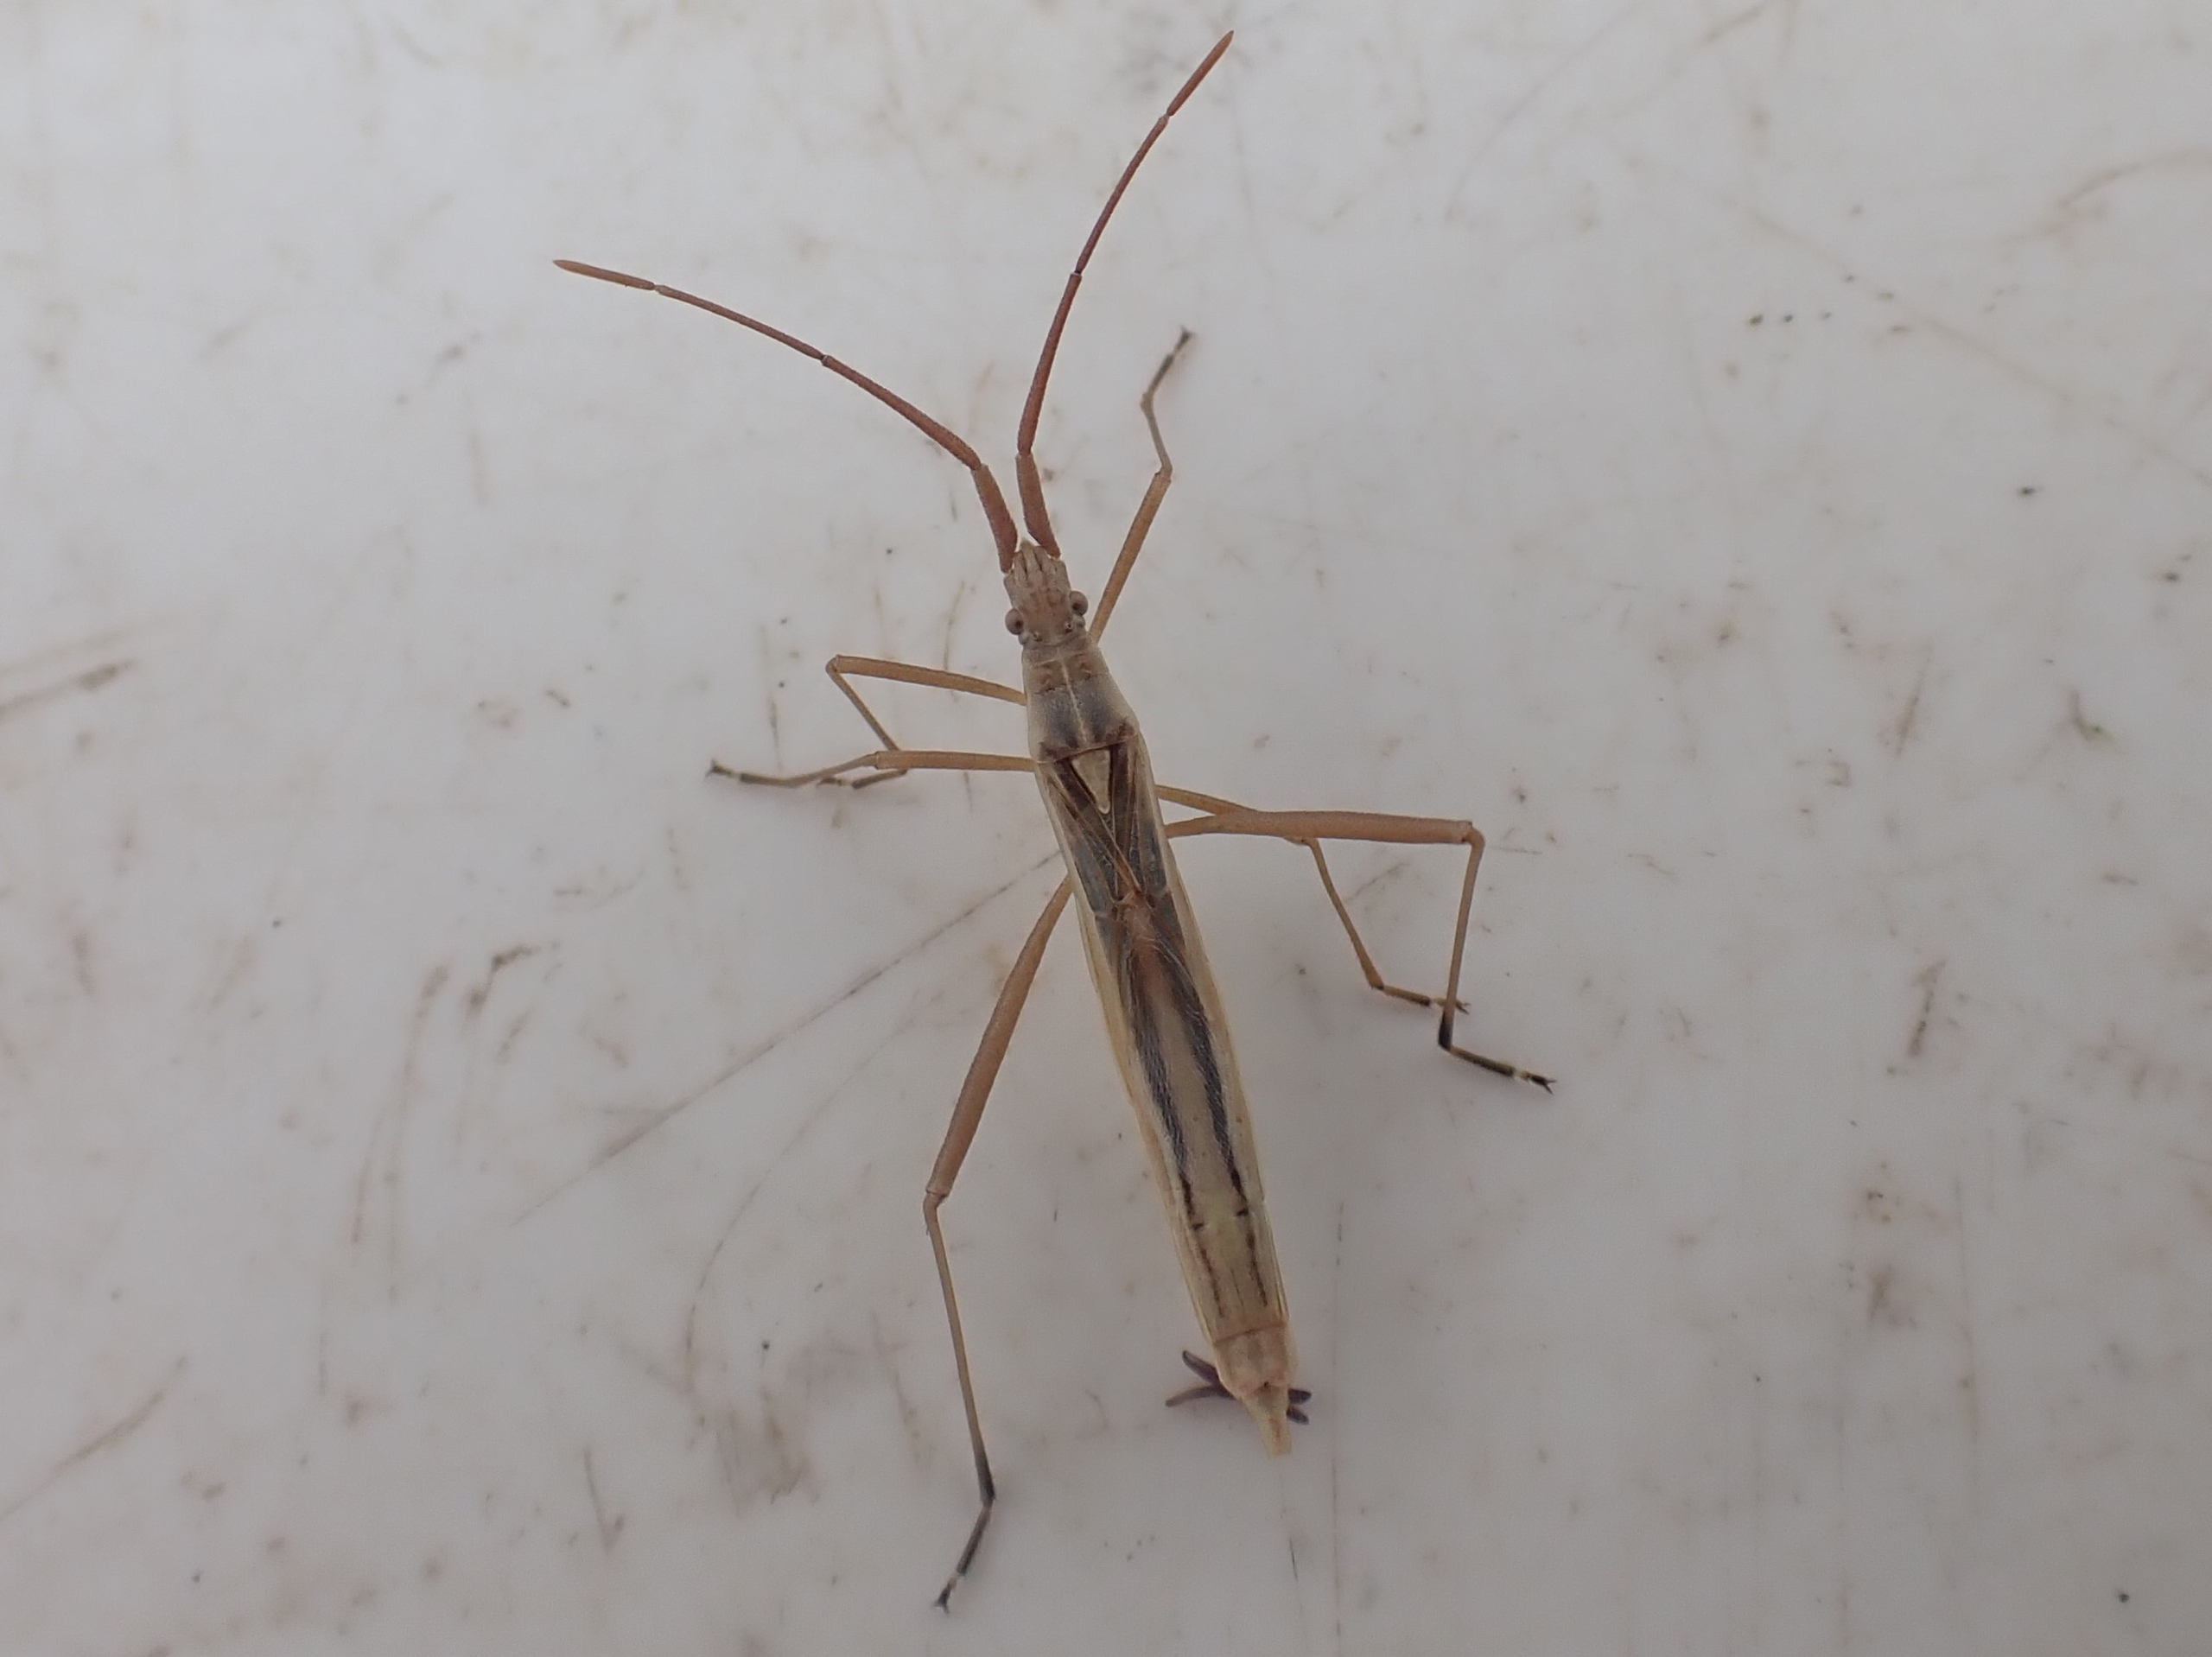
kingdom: Animalia
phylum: Arthropoda
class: Insecta
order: Hemiptera
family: Rhopalidae
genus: Chorosoma
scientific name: Chorosoma schillingii
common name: Lang stråtæge
